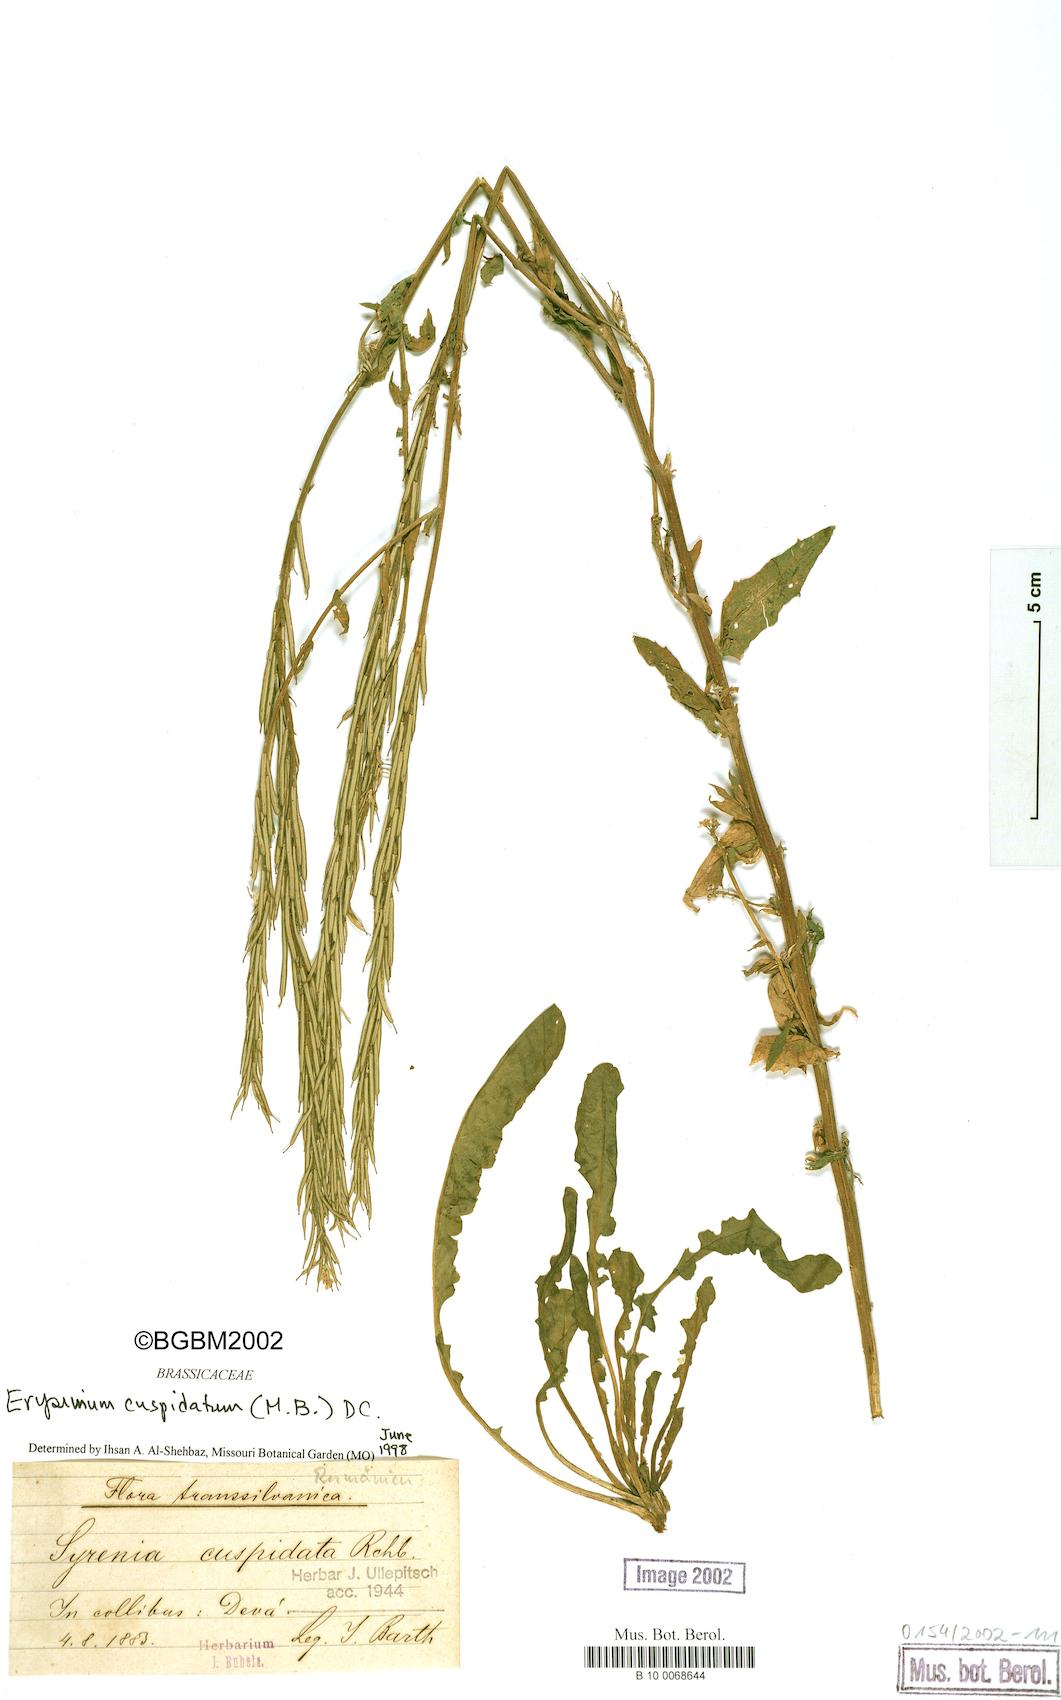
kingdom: Plantae
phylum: Tracheophyta
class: Magnoliopsida
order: Brassicales
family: Brassicaceae
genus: Erysimum
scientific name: Erysimum cuspidatum
